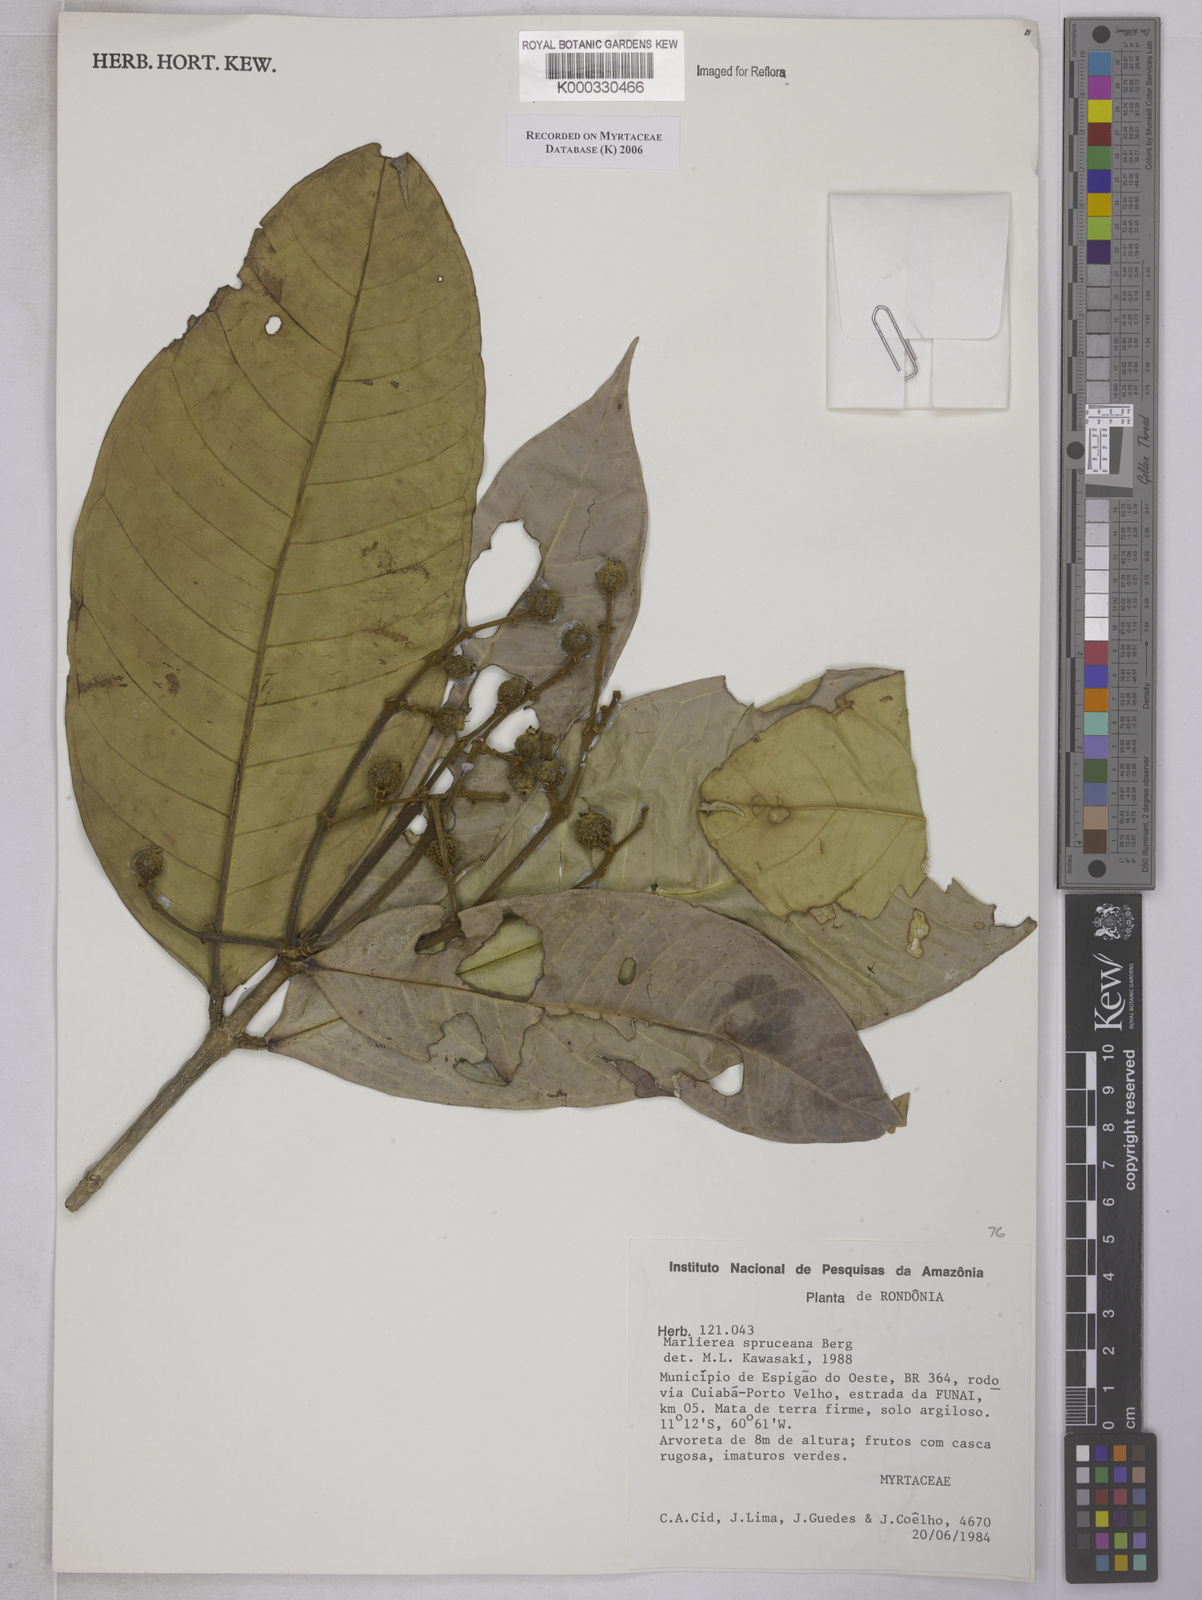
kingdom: Plantae
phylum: Tracheophyta
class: Magnoliopsida
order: Myrtales
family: Myrtaceae
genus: Myrcia
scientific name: Myrcia argentigemma
